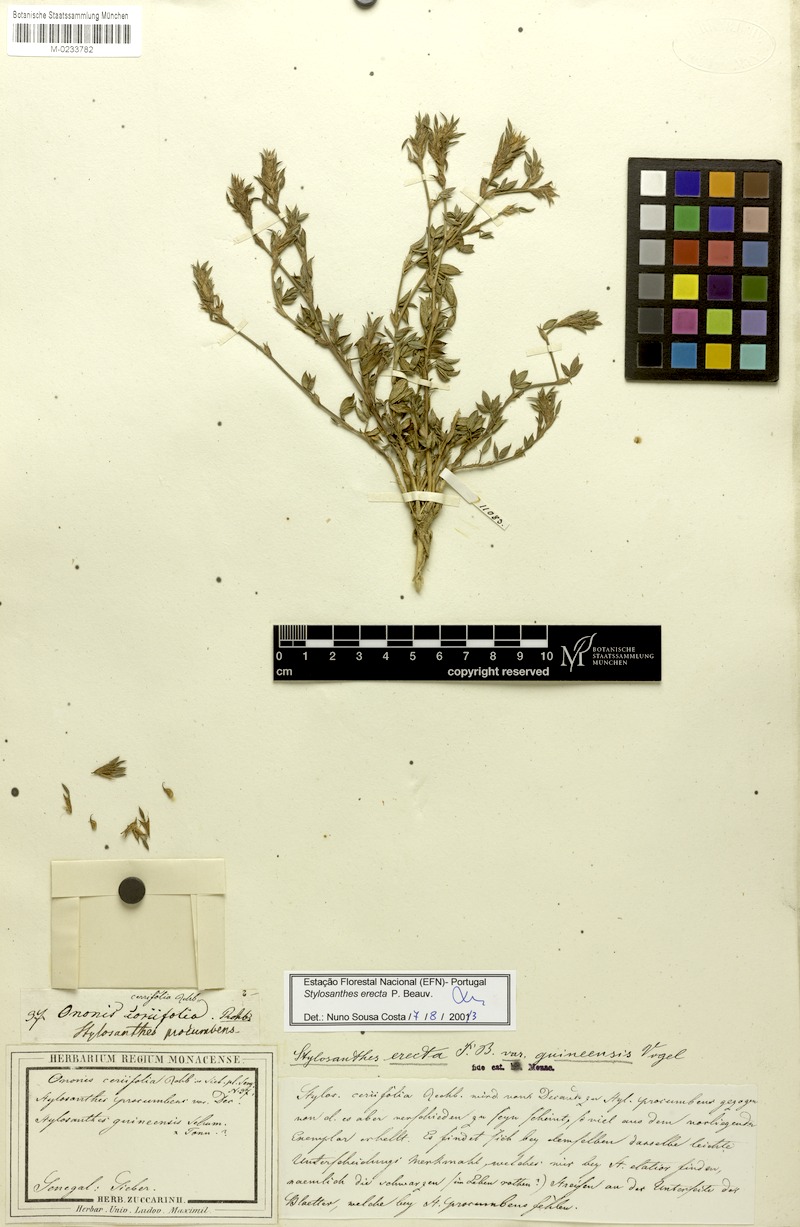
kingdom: Plantae
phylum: Tracheophyta
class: Magnoliopsida
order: Fabales
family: Fabaceae
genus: Stylosanthes
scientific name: Stylosanthes erecta
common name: Nigerian stylo
